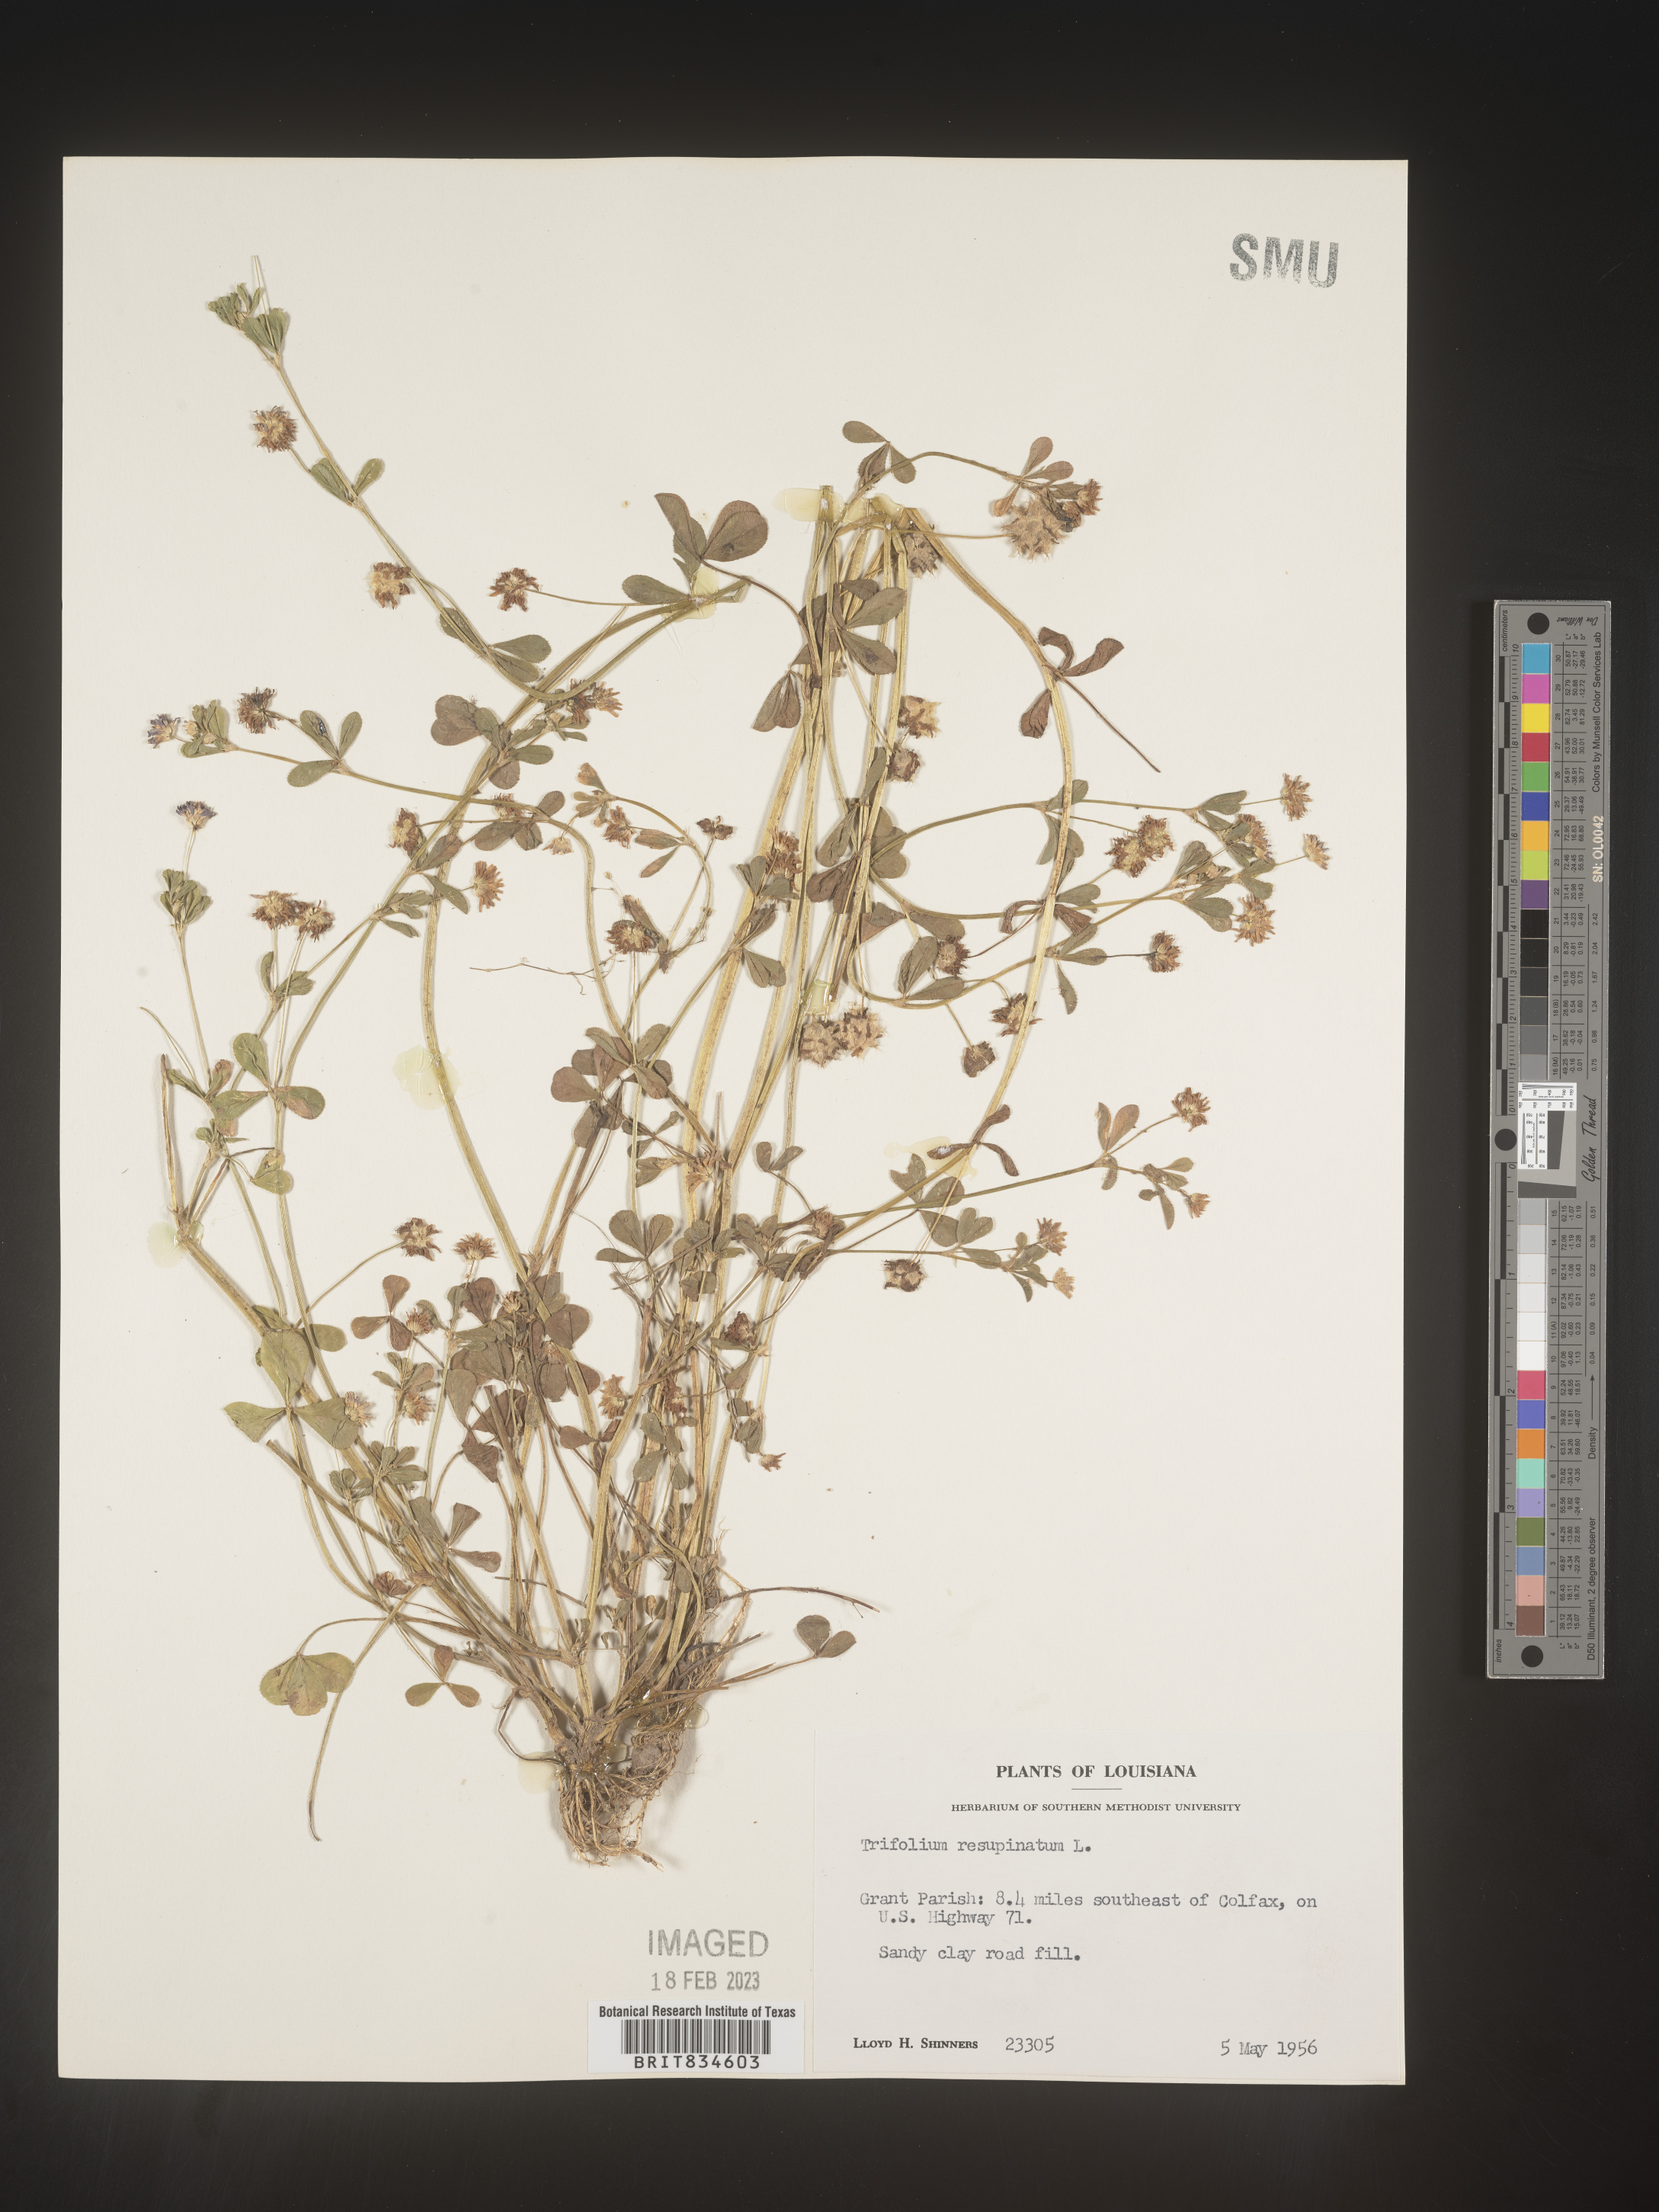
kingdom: Plantae
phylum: Tracheophyta
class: Magnoliopsida
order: Fabales
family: Fabaceae
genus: Trifolium
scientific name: Trifolium resupinatum
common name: Reversed clover
